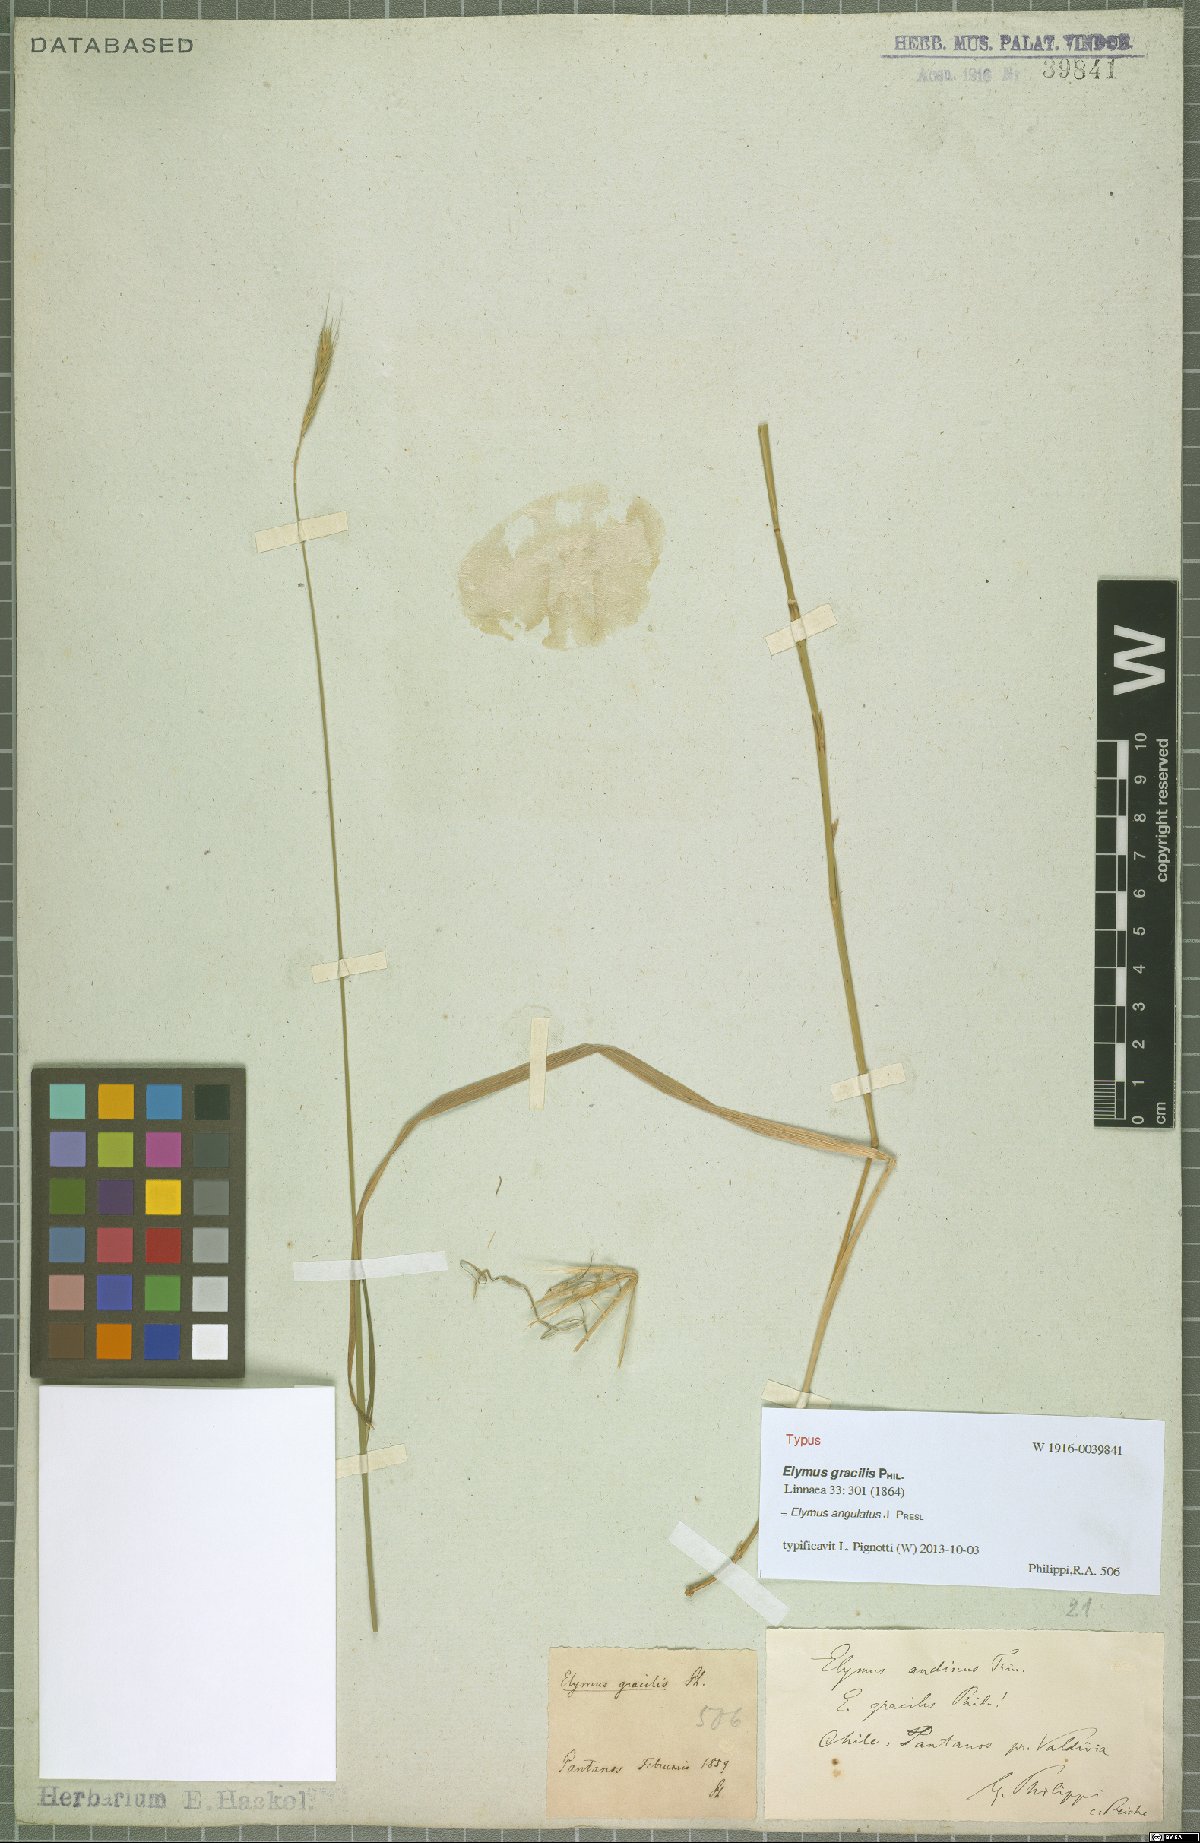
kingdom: Plantae
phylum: Tracheophyta
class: Liliopsida
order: Poales
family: Poaceae
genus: Elymus
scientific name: Elymus angulatus
